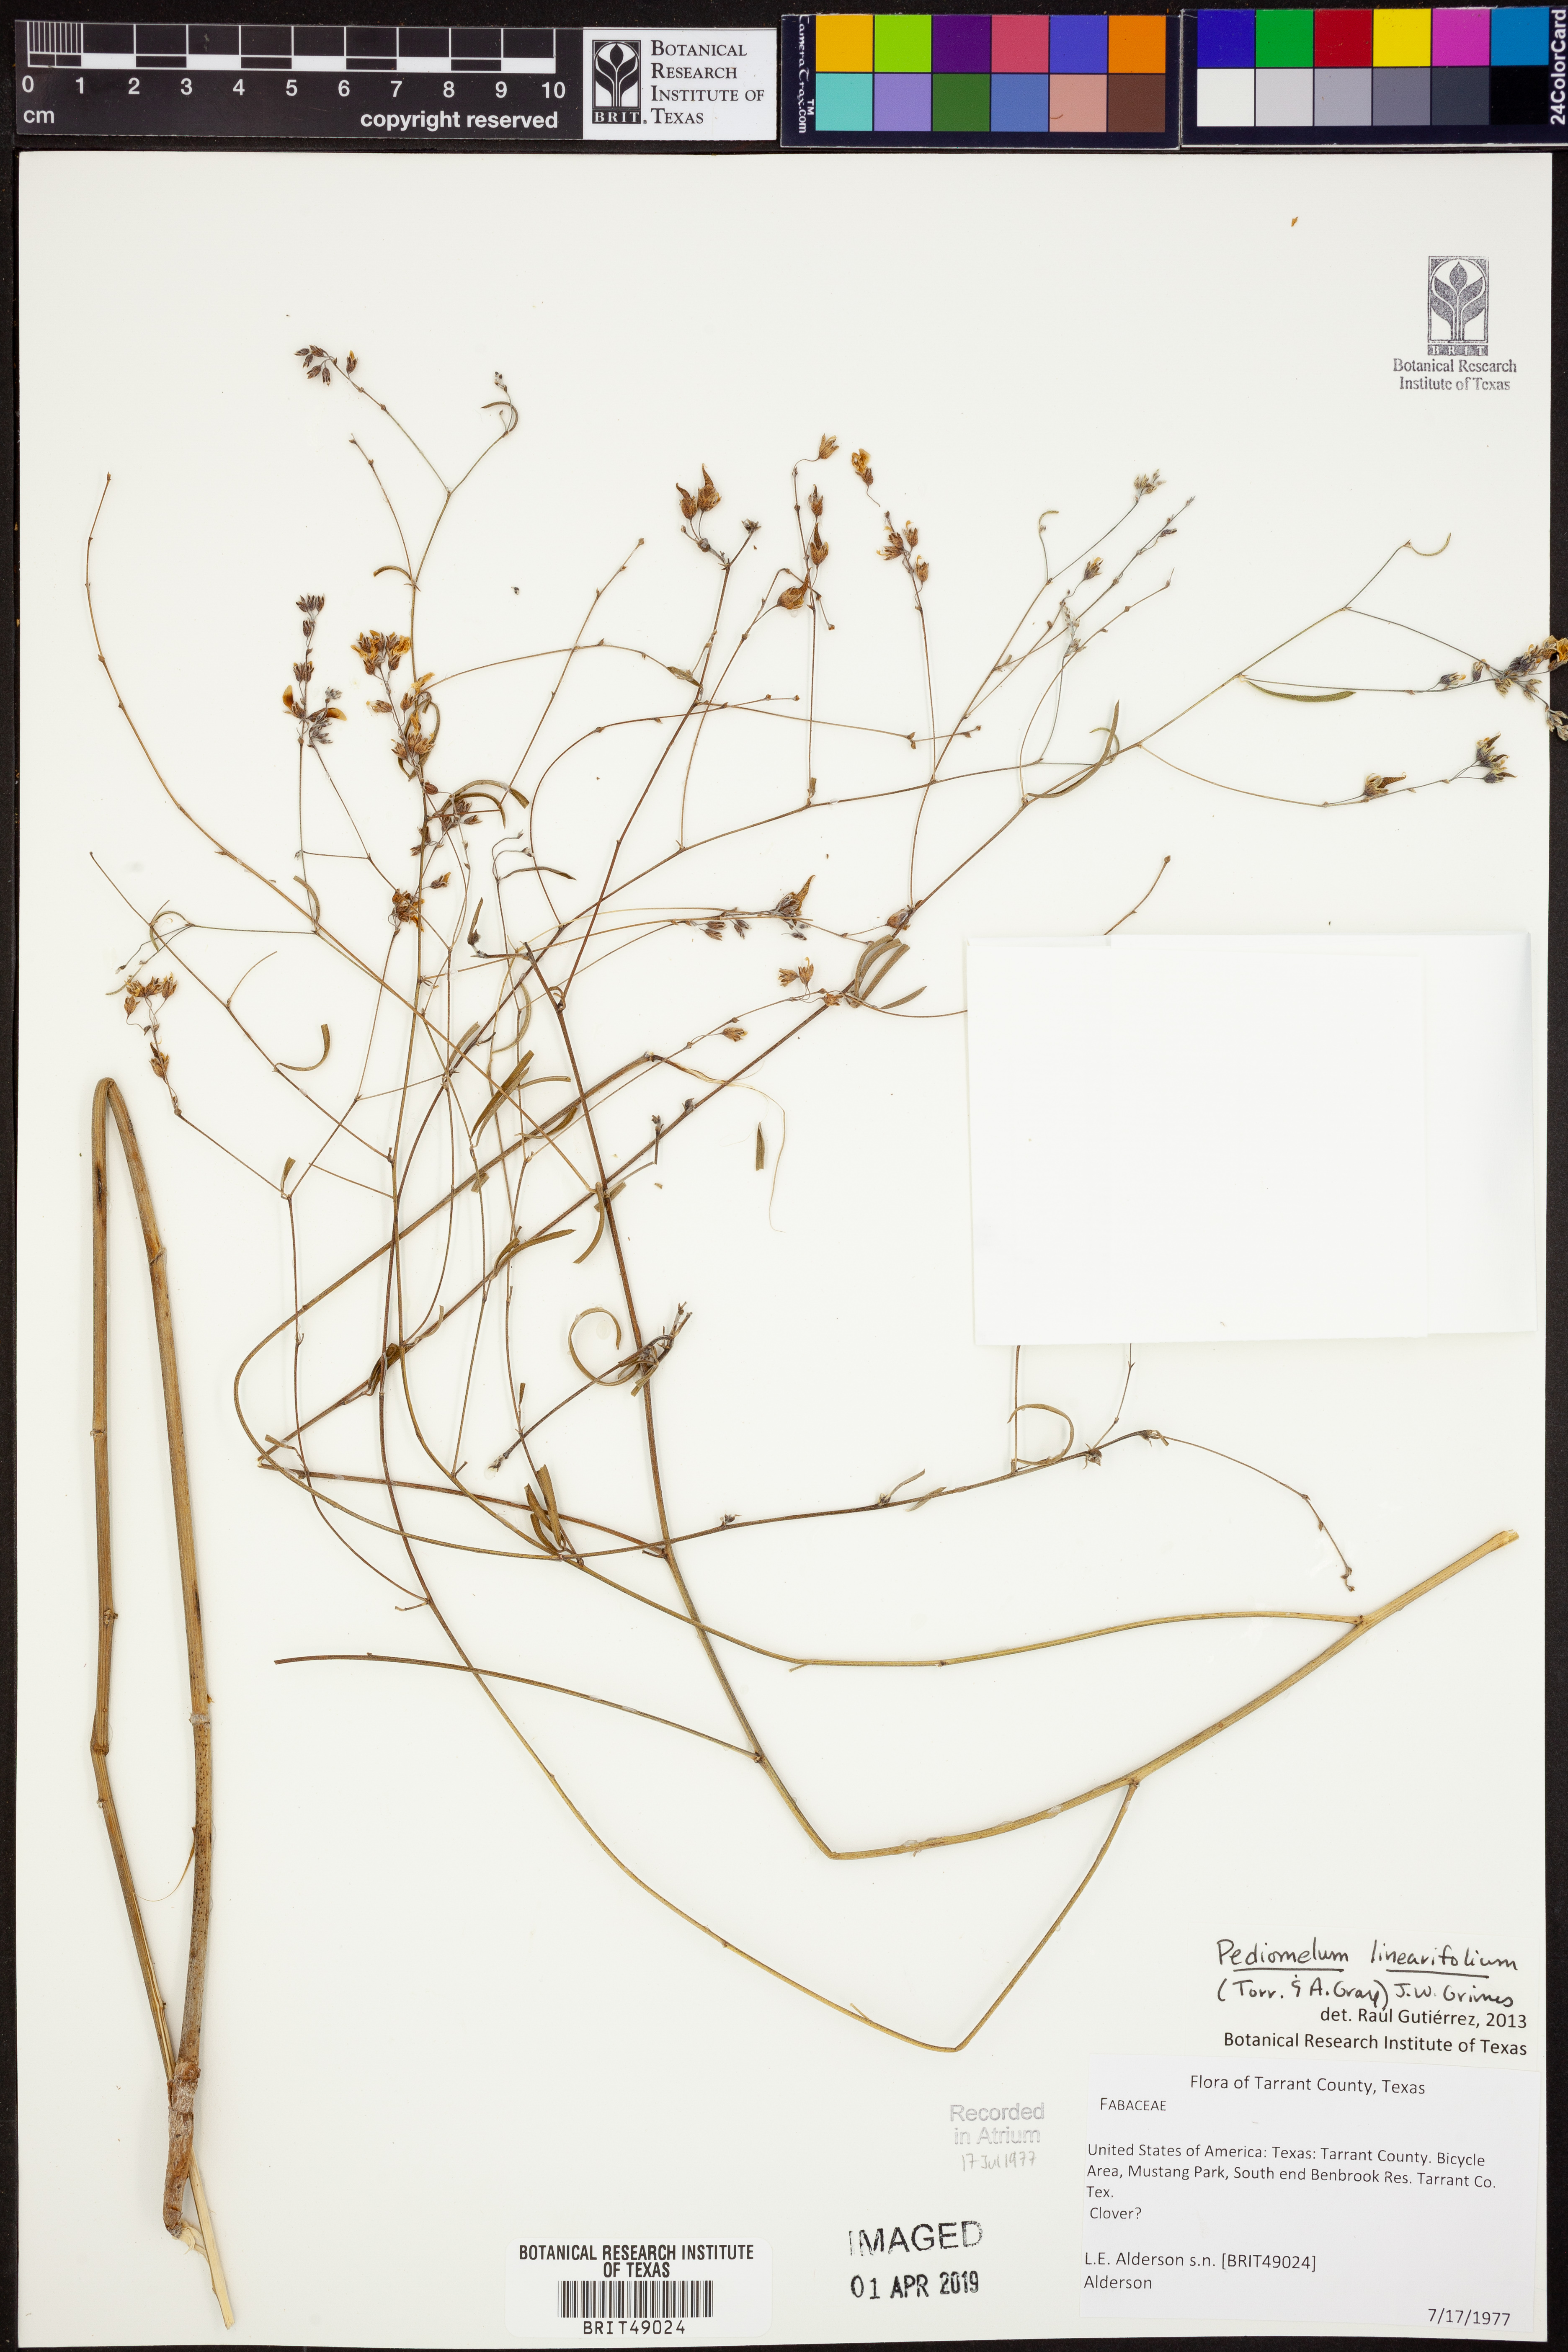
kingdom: Plantae
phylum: Tracheophyta
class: Magnoliopsida
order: Fabales
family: Fabaceae
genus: Pediomelum
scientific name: Pediomelum linearifolium
